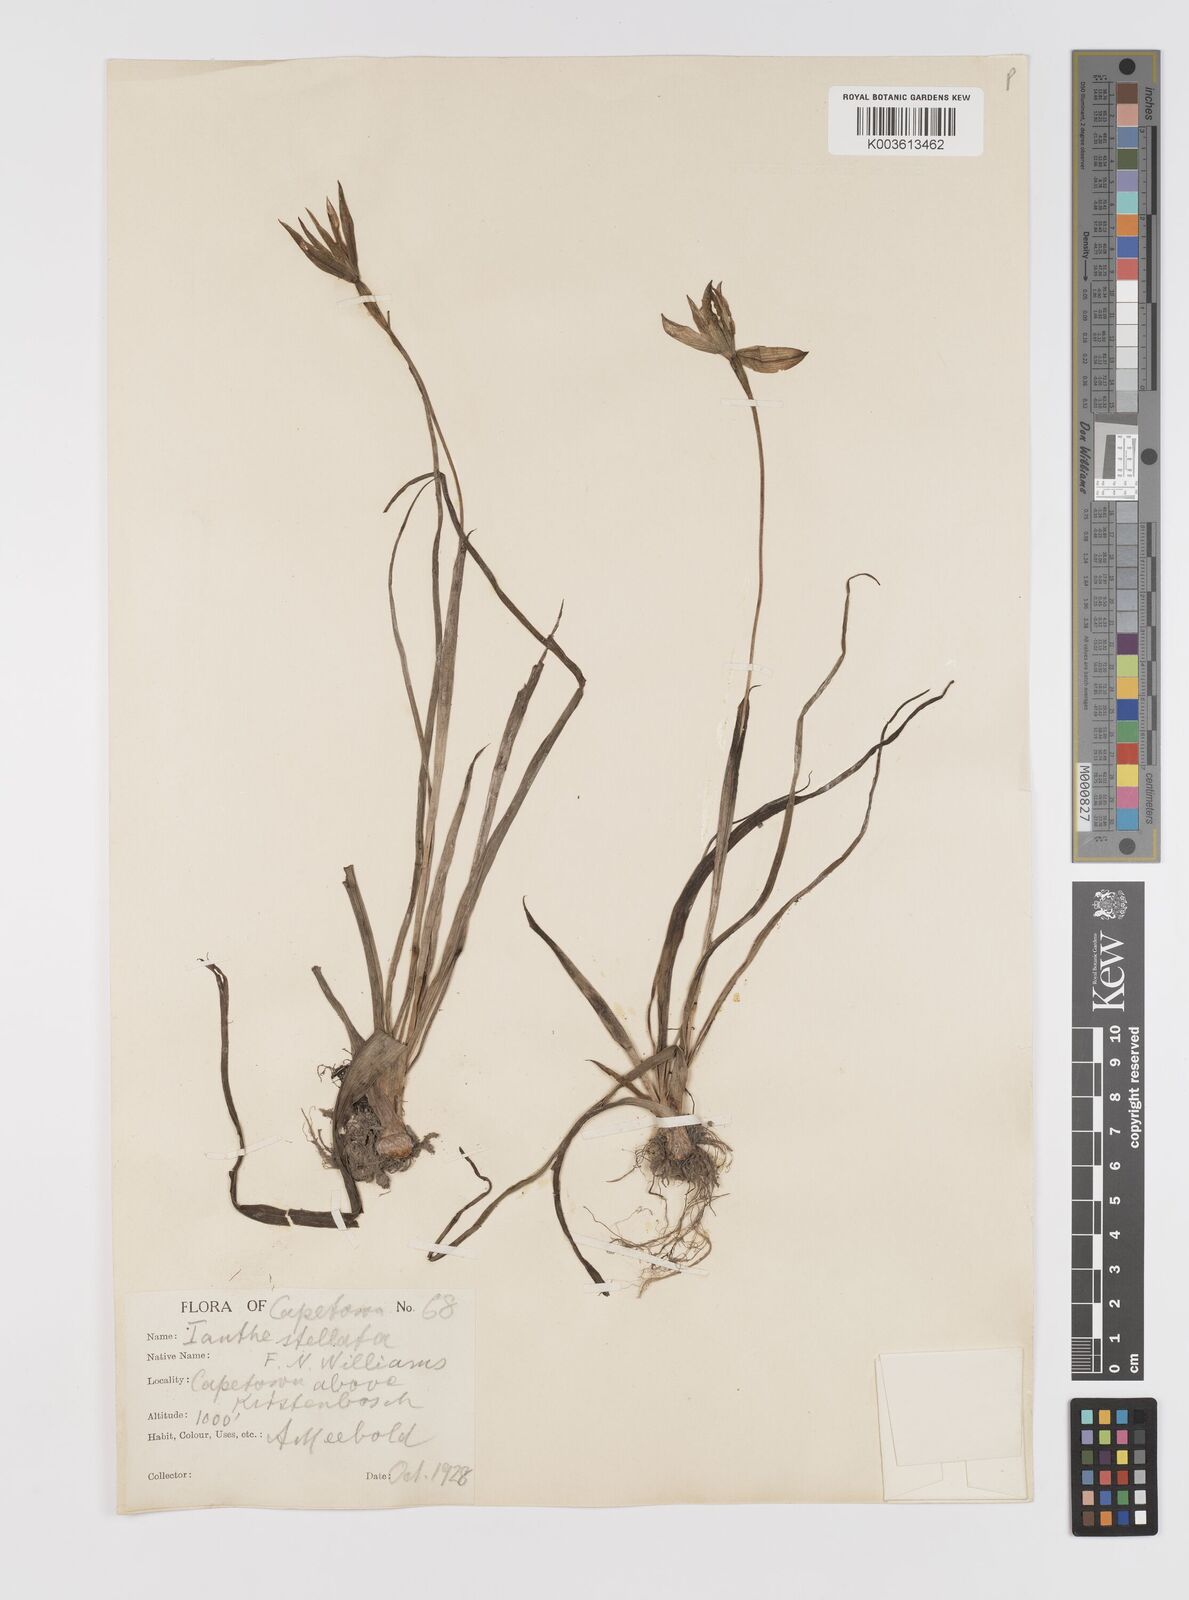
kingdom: Plantae
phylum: Tracheophyta
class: Liliopsida
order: Asparagales
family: Hypoxidaceae
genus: Pauridia
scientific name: Pauridia capensis
